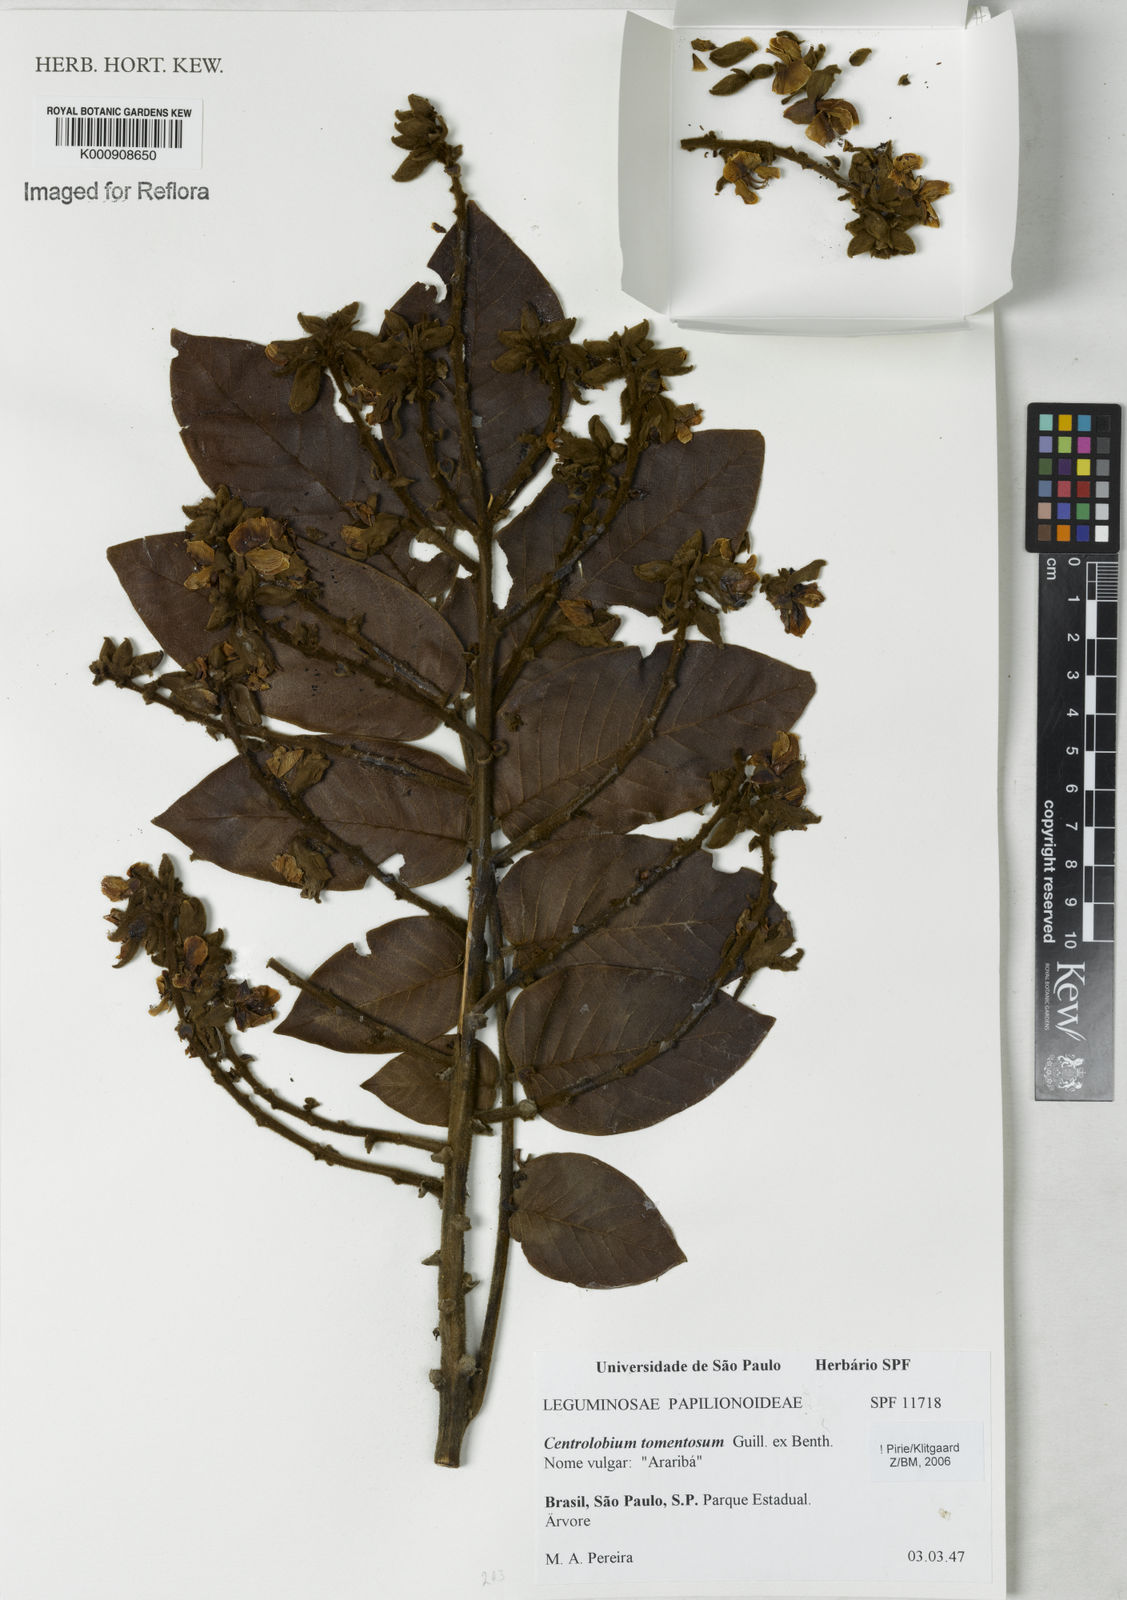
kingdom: Plantae
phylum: Tracheophyta
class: Magnoliopsida
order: Fabales
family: Fabaceae
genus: Centrolobium
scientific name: Centrolobium tomentosum
